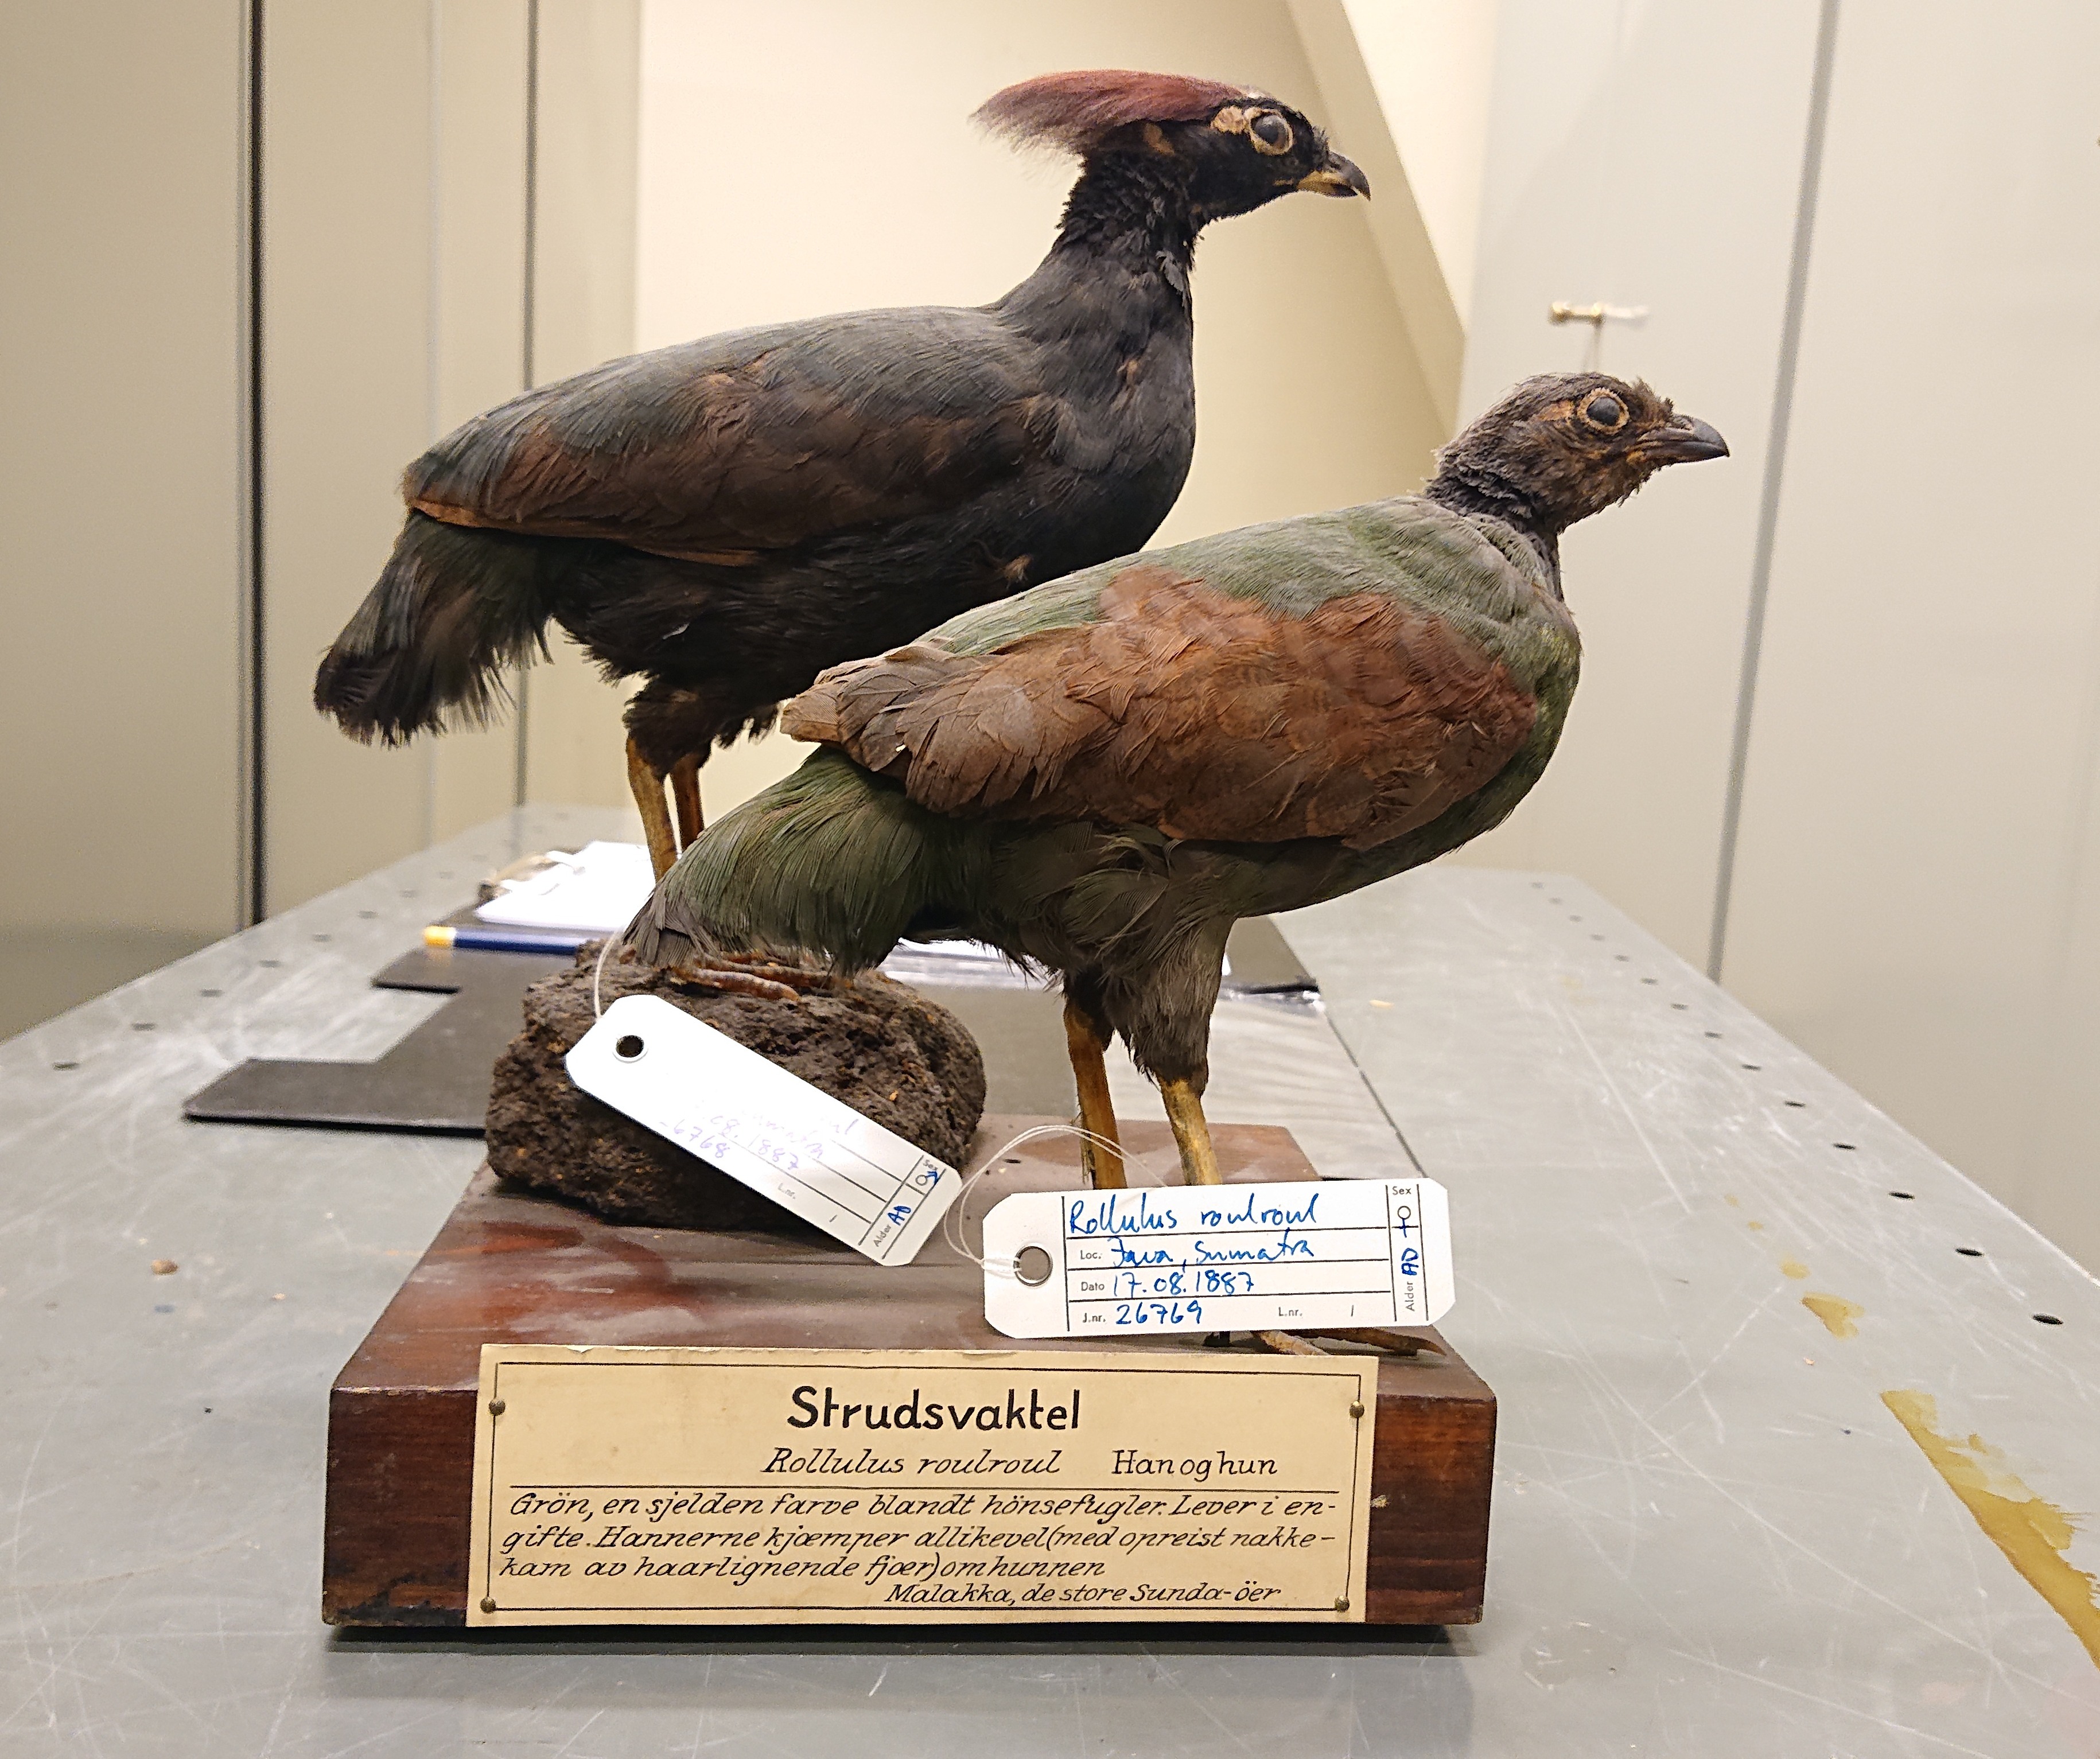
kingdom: Animalia
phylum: Chordata
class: Aves
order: Galliformes
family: Phasianidae
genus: Rollulus
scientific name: Rollulus rouloul
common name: Crested partridge
